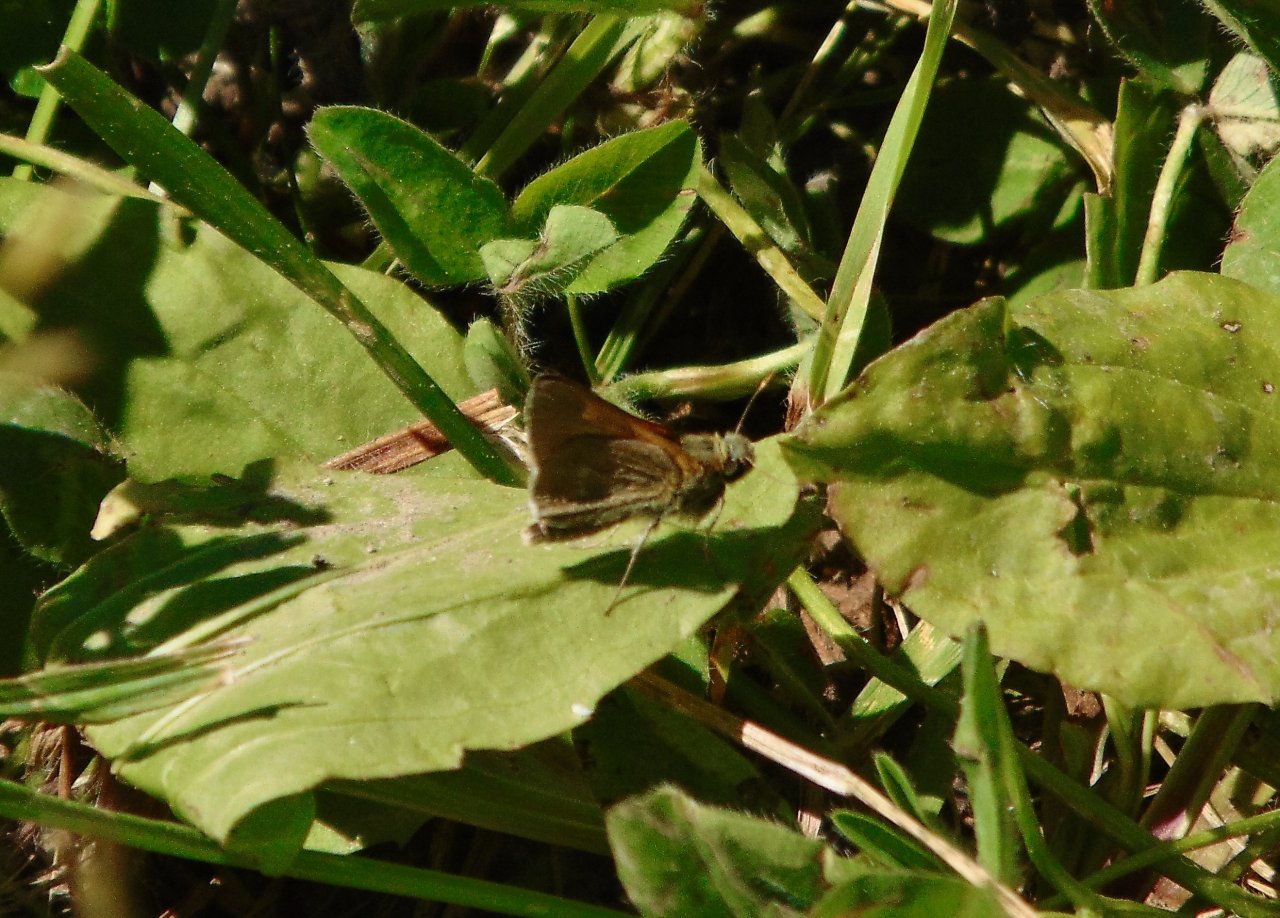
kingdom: Animalia
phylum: Arthropoda
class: Insecta
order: Lepidoptera
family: Hesperiidae
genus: Polites
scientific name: Polites themistocles
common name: Tawny-edged Skipper
